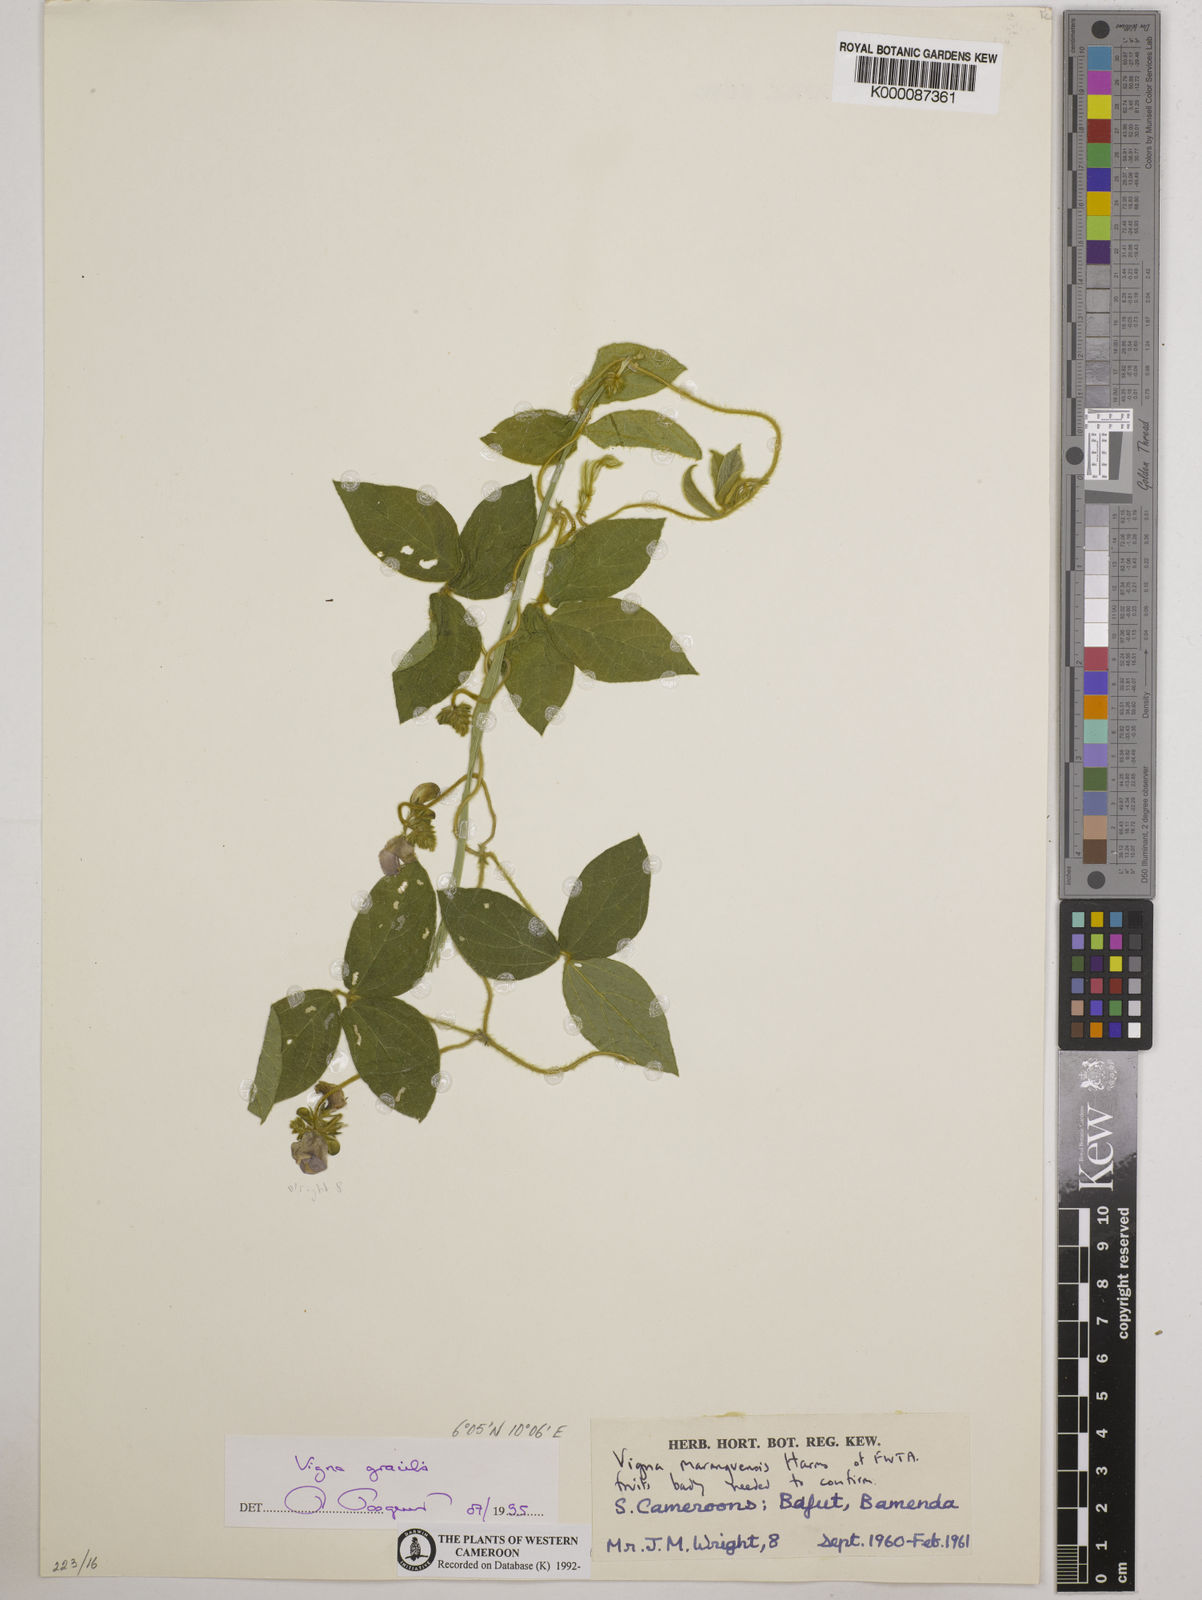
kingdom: Plantae
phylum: Tracheophyta
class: Magnoliopsida
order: Fabales
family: Fabaceae
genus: Vigna
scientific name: Vigna gracilis
